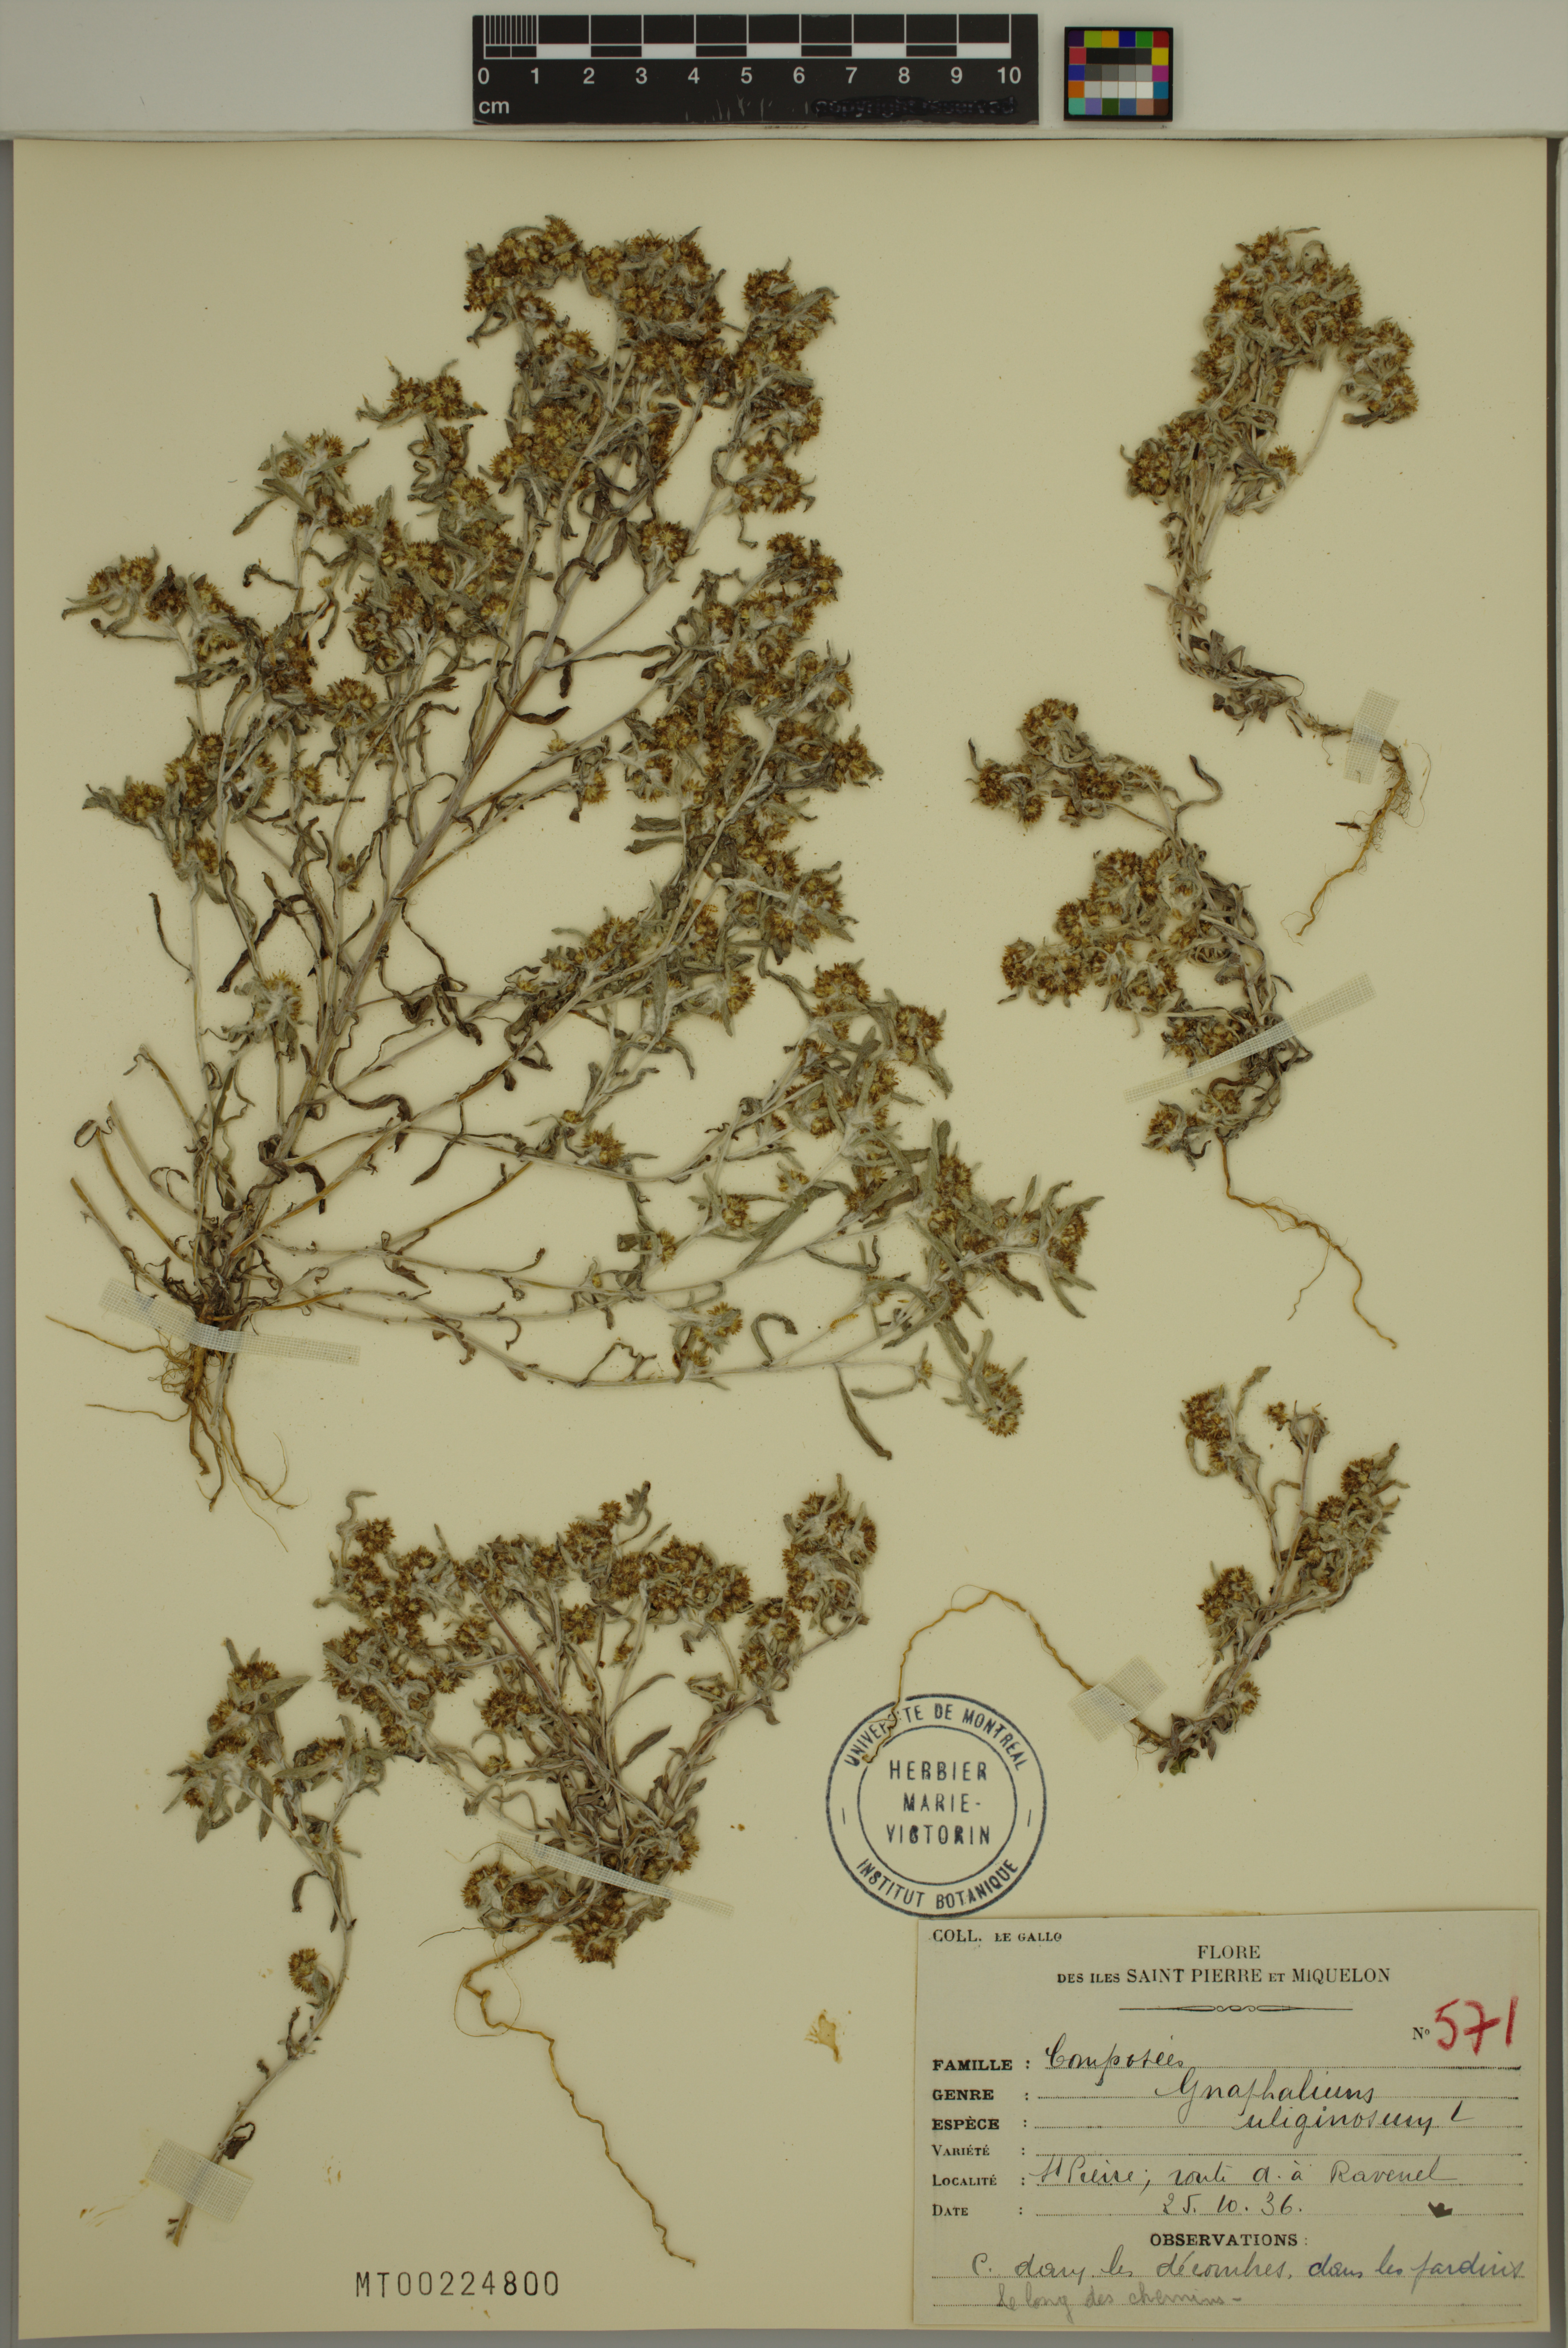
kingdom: Plantae
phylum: Tracheophyta
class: Magnoliopsida
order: Asterales
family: Asteraceae
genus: Gnaphalium
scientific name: Gnaphalium uliginosum
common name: Marsh cudweed
